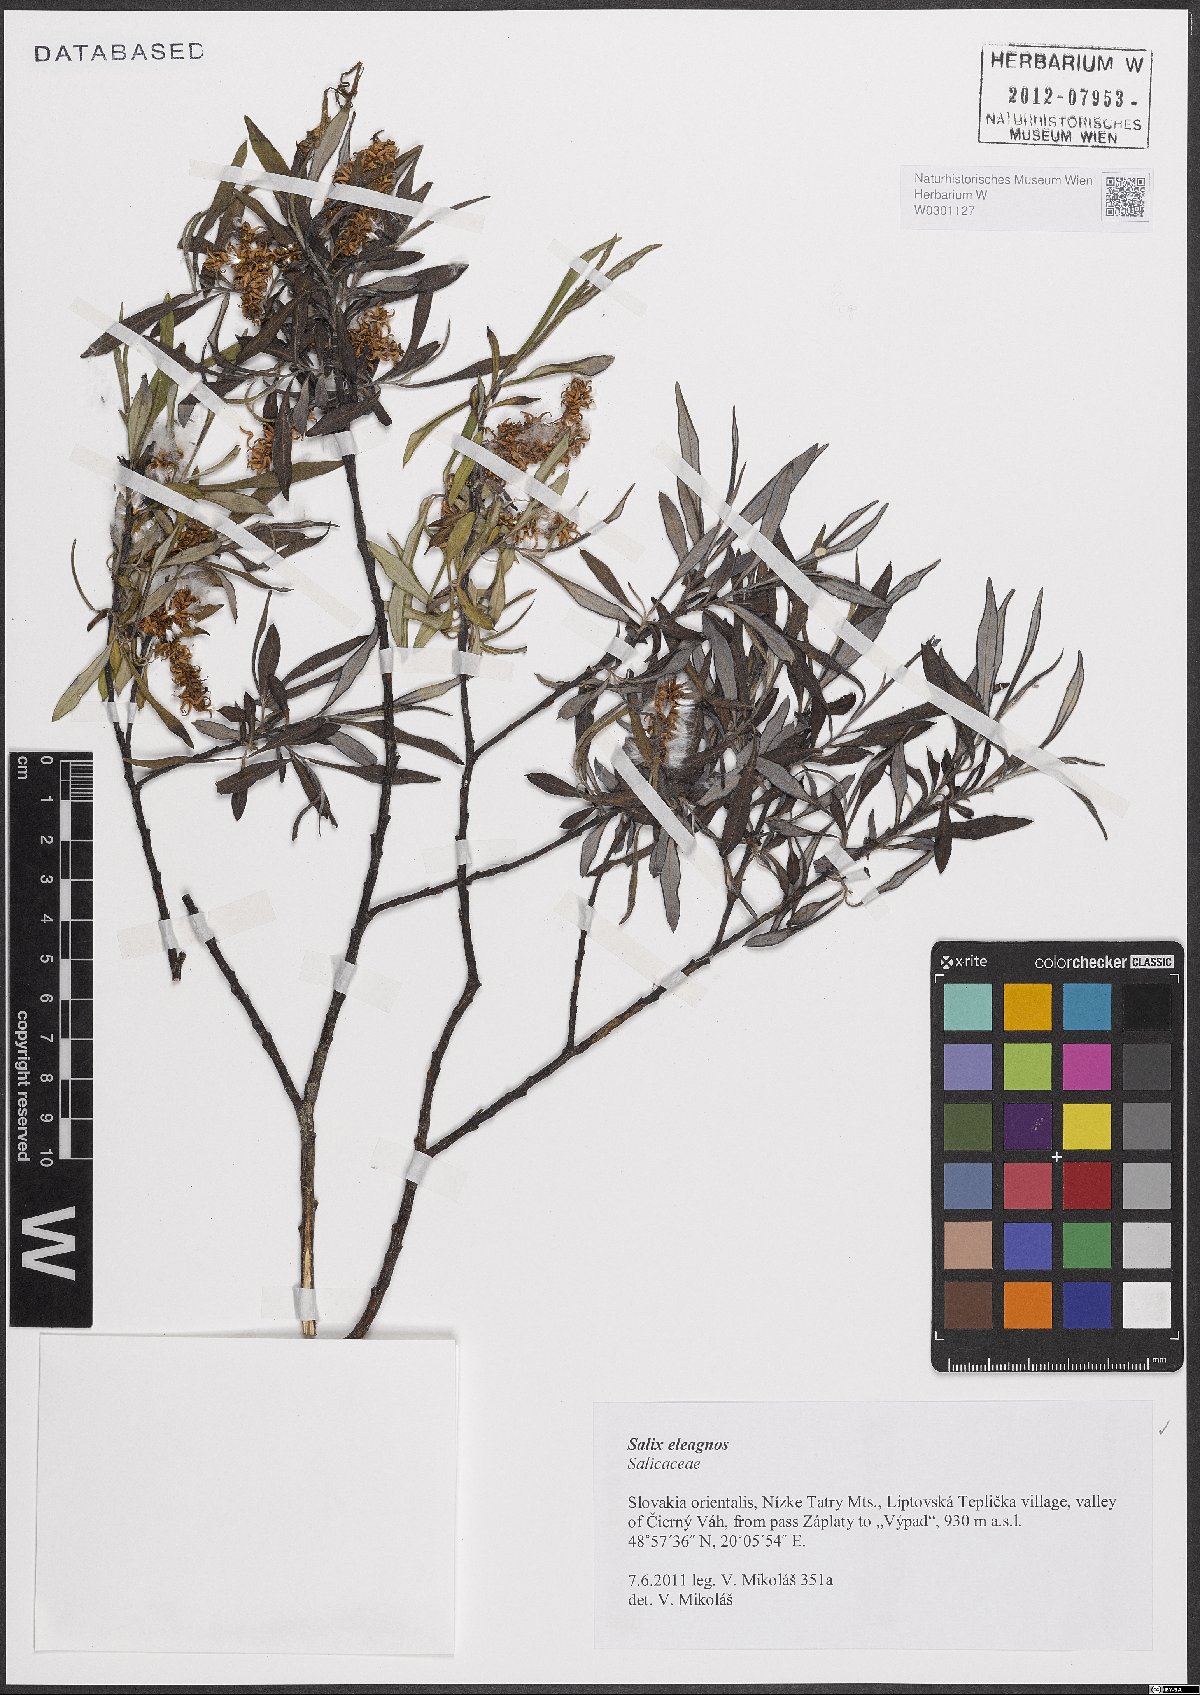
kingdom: Plantae
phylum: Tracheophyta
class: Magnoliopsida
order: Malpighiales
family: Salicaceae
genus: Salix
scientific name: Salix eleagnos
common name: Elaeagnus willow
